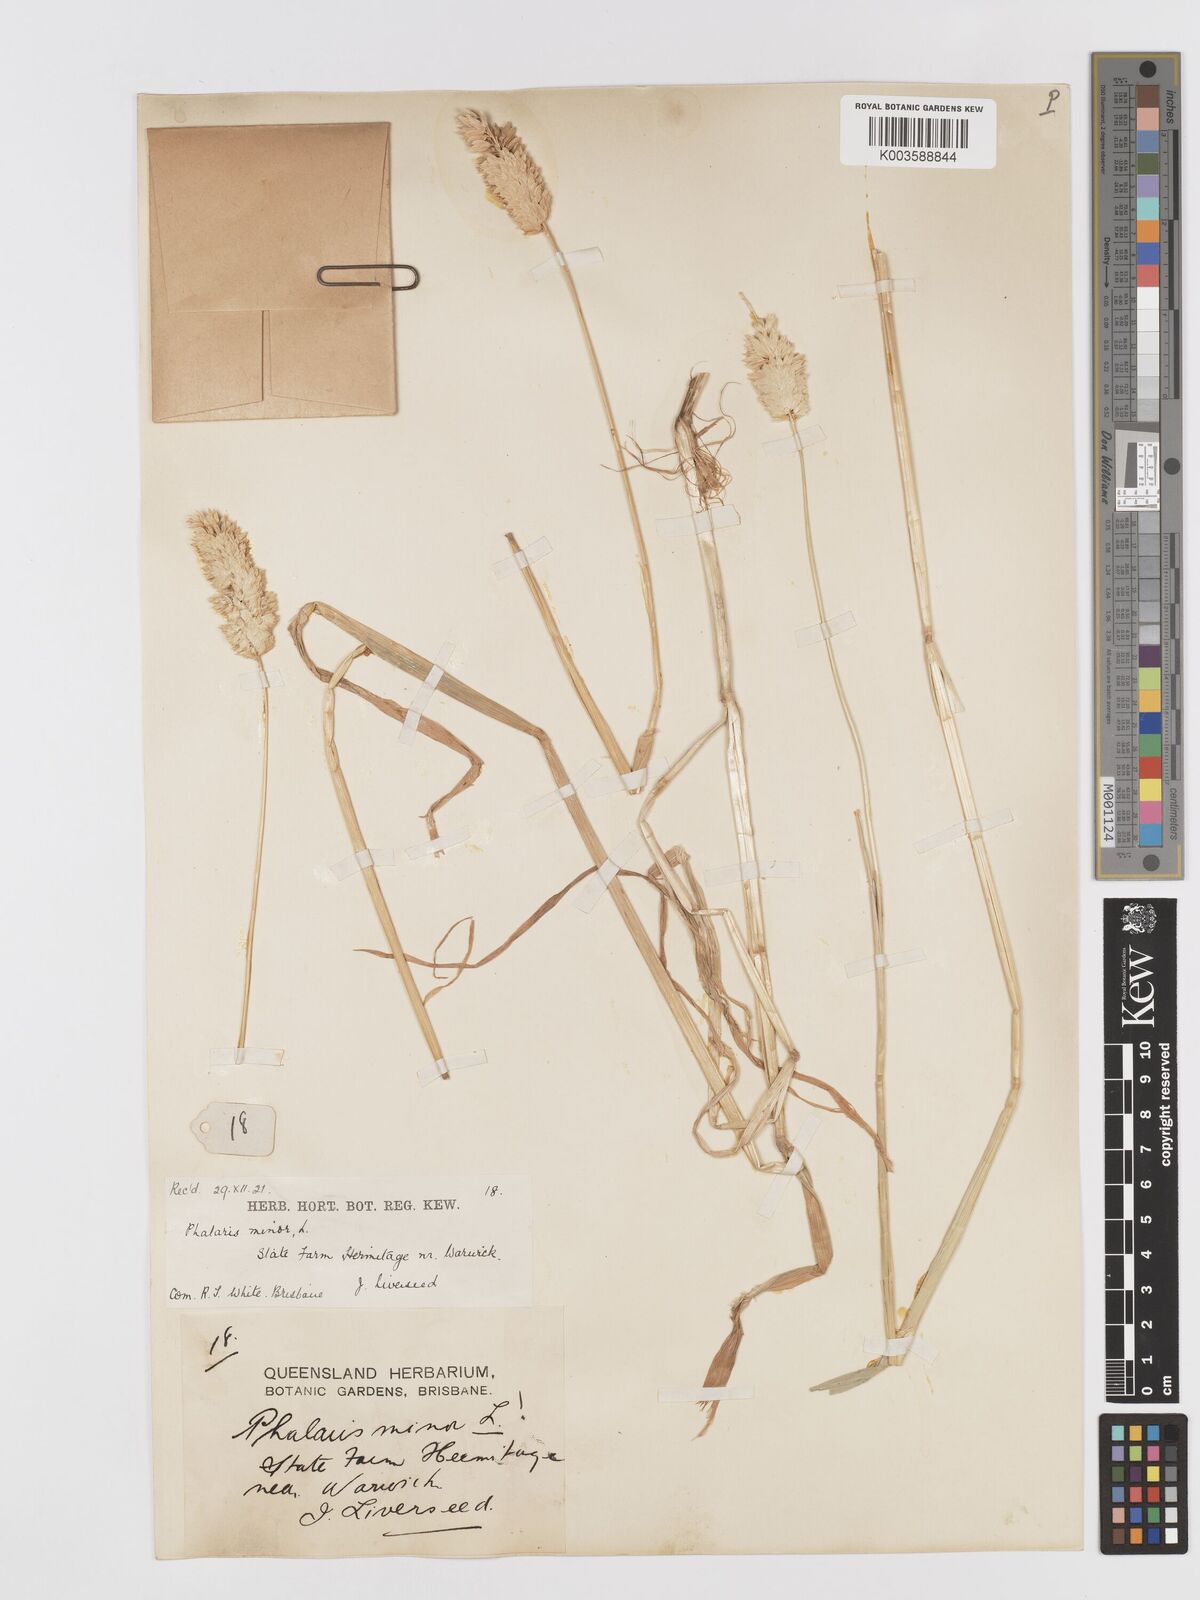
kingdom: Plantae
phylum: Tracheophyta
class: Liliopsida
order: Poales
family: Poaceae
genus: Phalaris
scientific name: Phalaris minor
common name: Littleseed canarygrass
